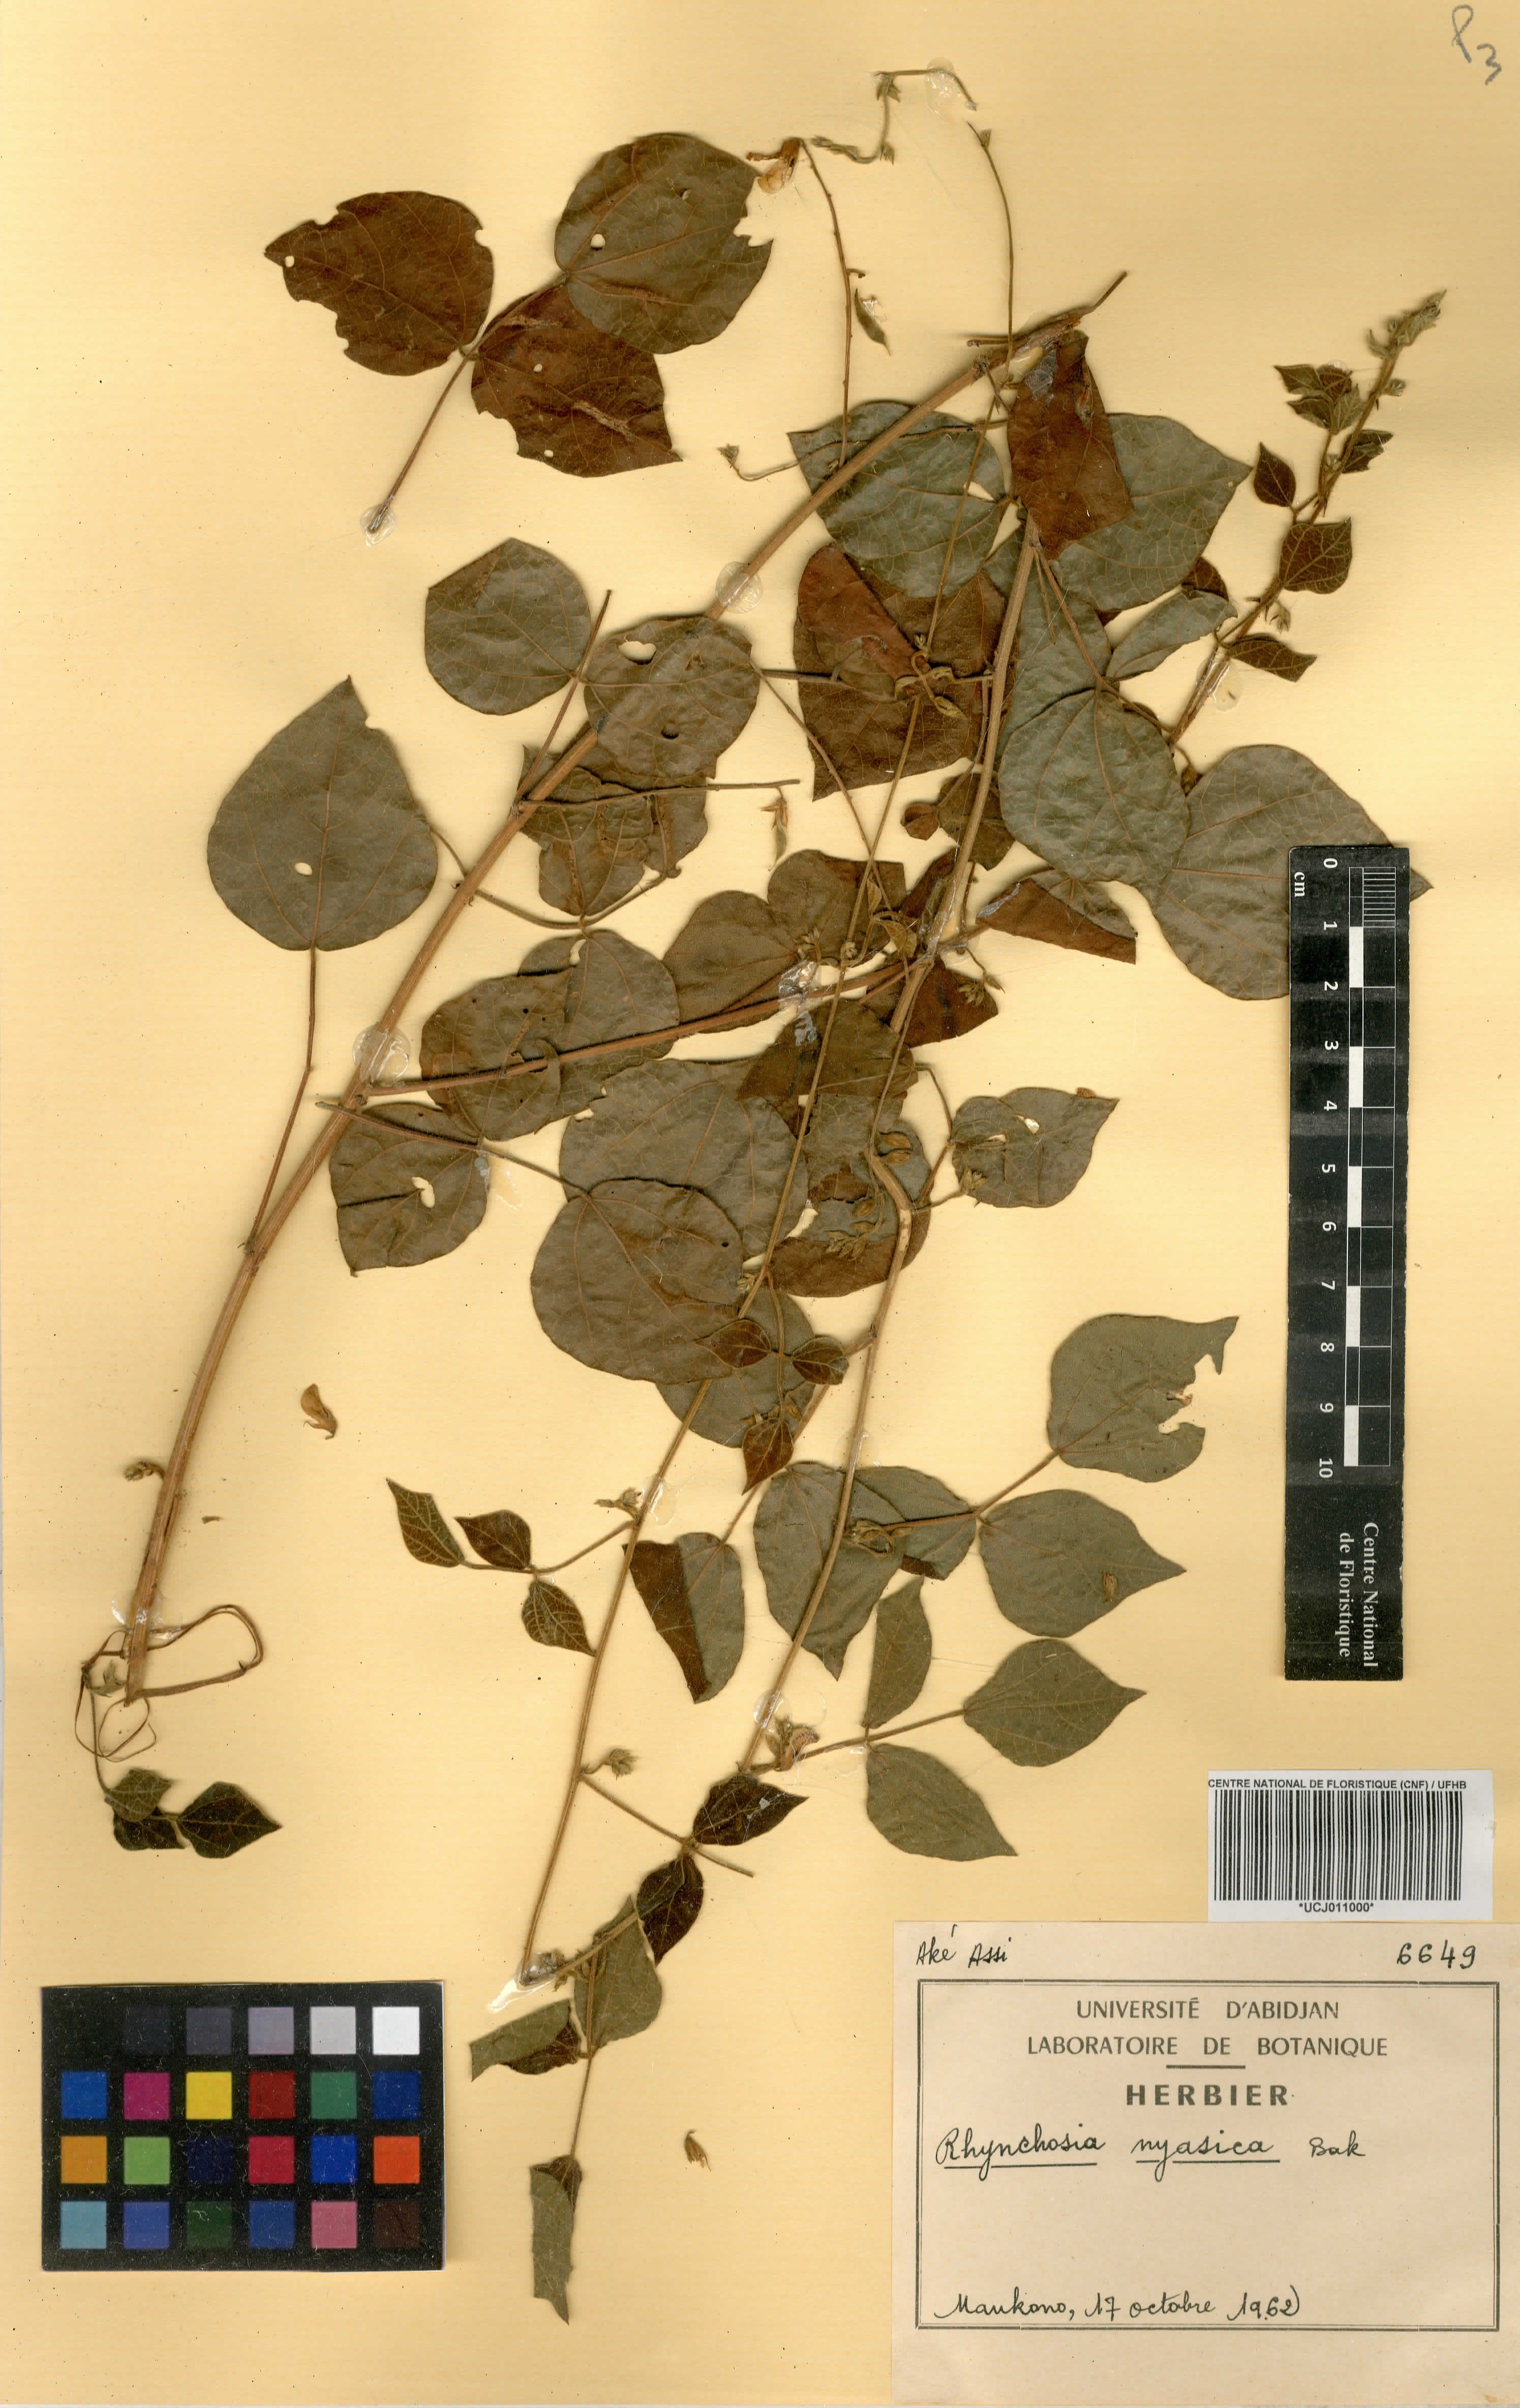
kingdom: Plantae
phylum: Tracheophyta
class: Magnoliopsida
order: Fabales
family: Fabaceae
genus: Rhynchosia
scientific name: Rhynchosia nyasica
